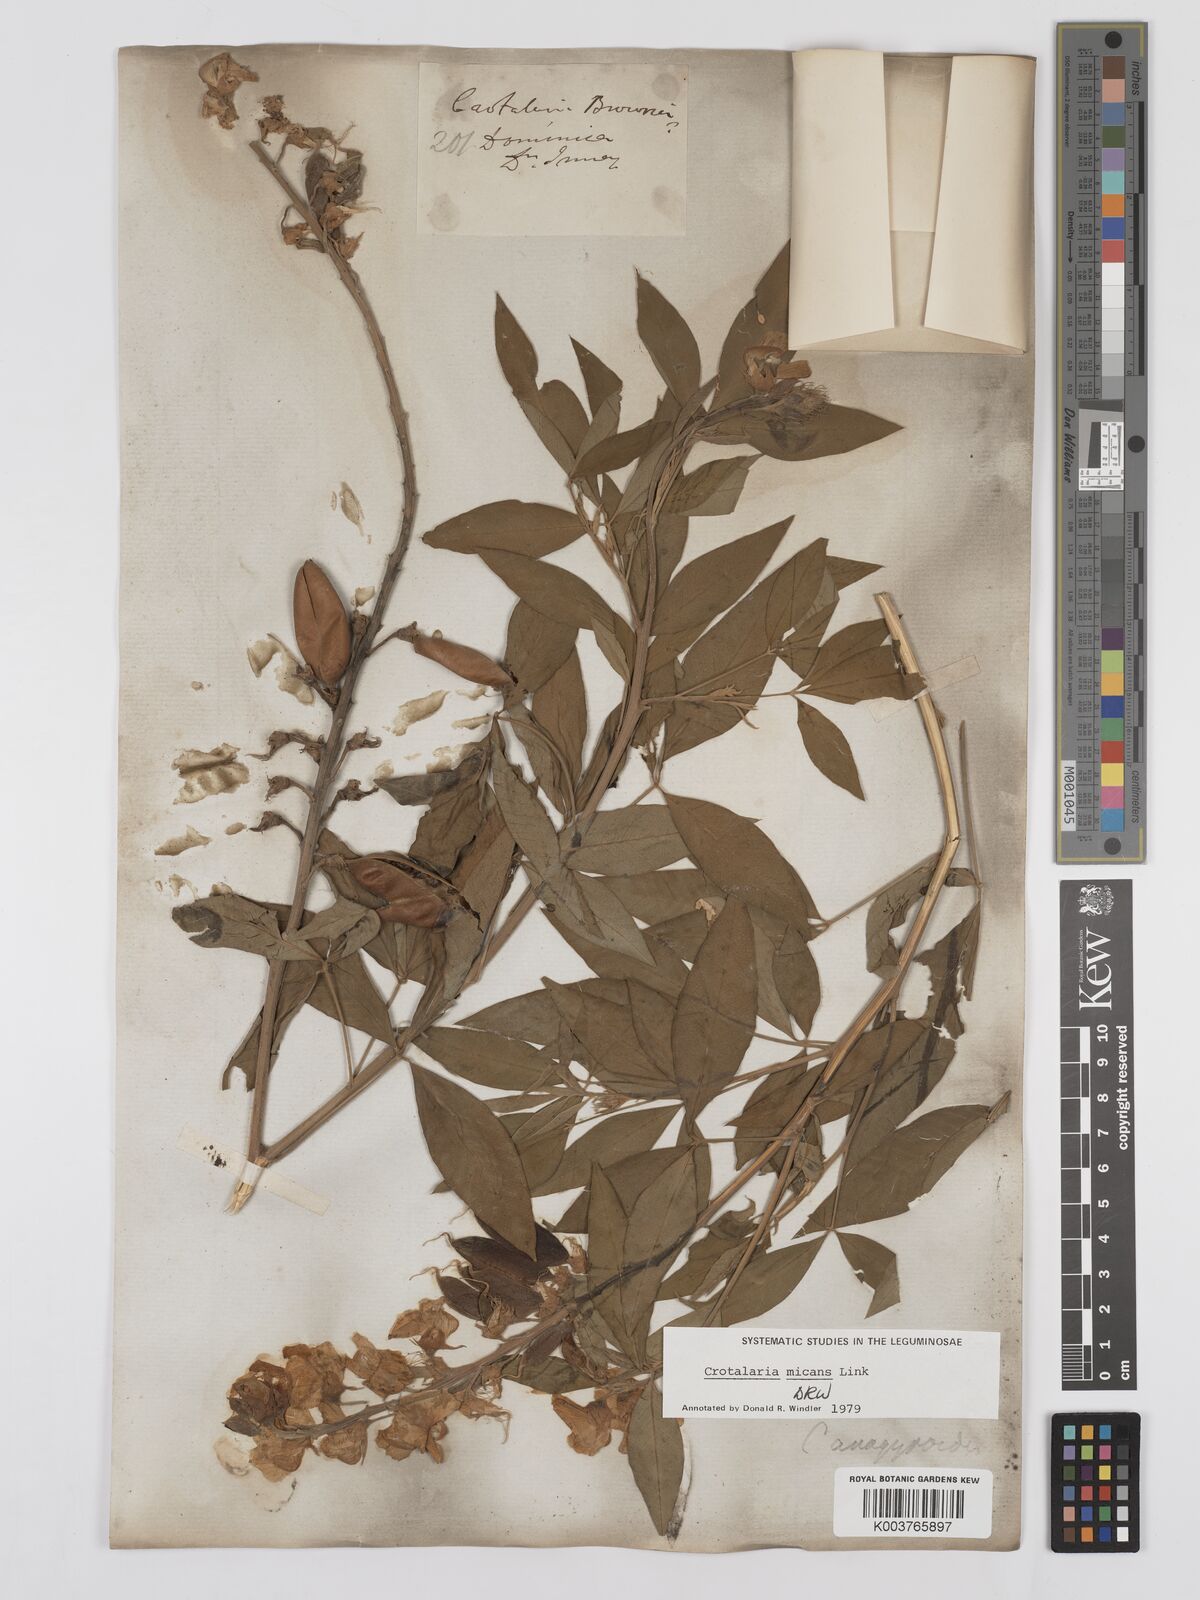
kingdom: Plantae
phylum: Tracheophyta
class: Magnoliopsida
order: Fabales
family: Fabaceae
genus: Crotalaria
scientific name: Crotalaria micans
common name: Caracas rattlebox
